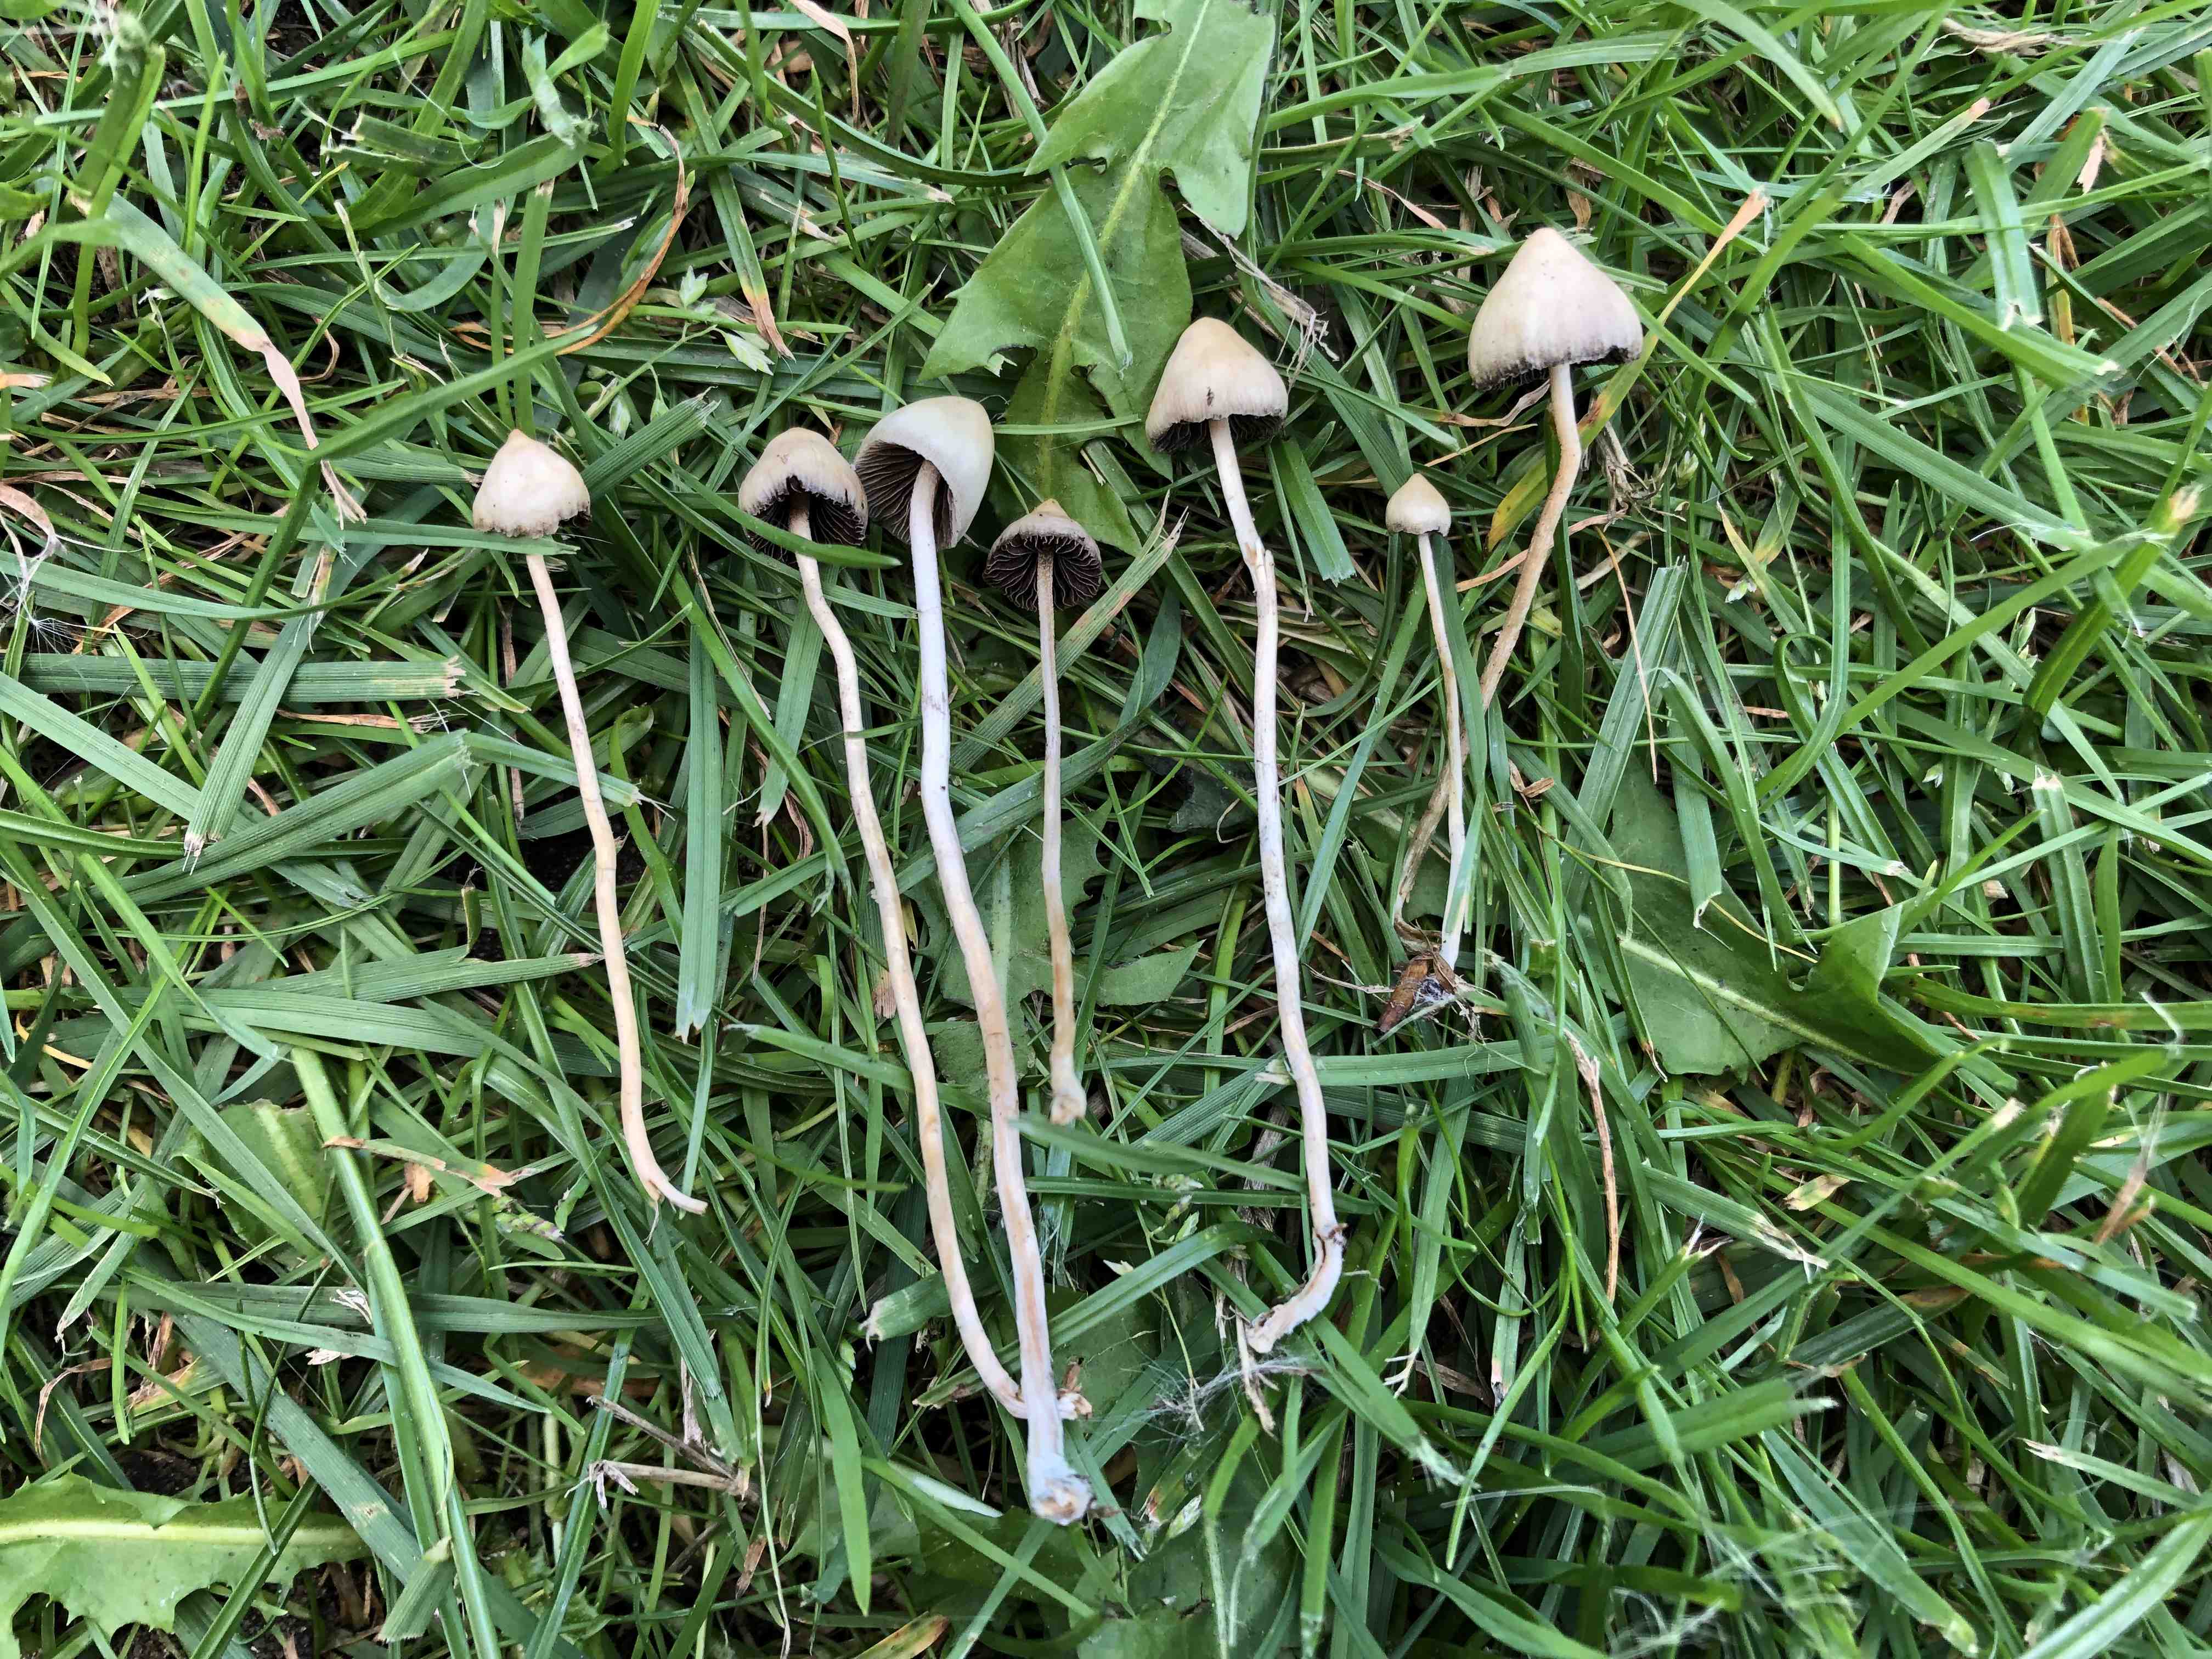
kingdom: Fungi
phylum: Basidiomycota
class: Agaricomycetes
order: Agaricales
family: Hymenogastraceae
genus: Psilocybe
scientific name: Psilocybe semilanceata
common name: spids nøgenhat
